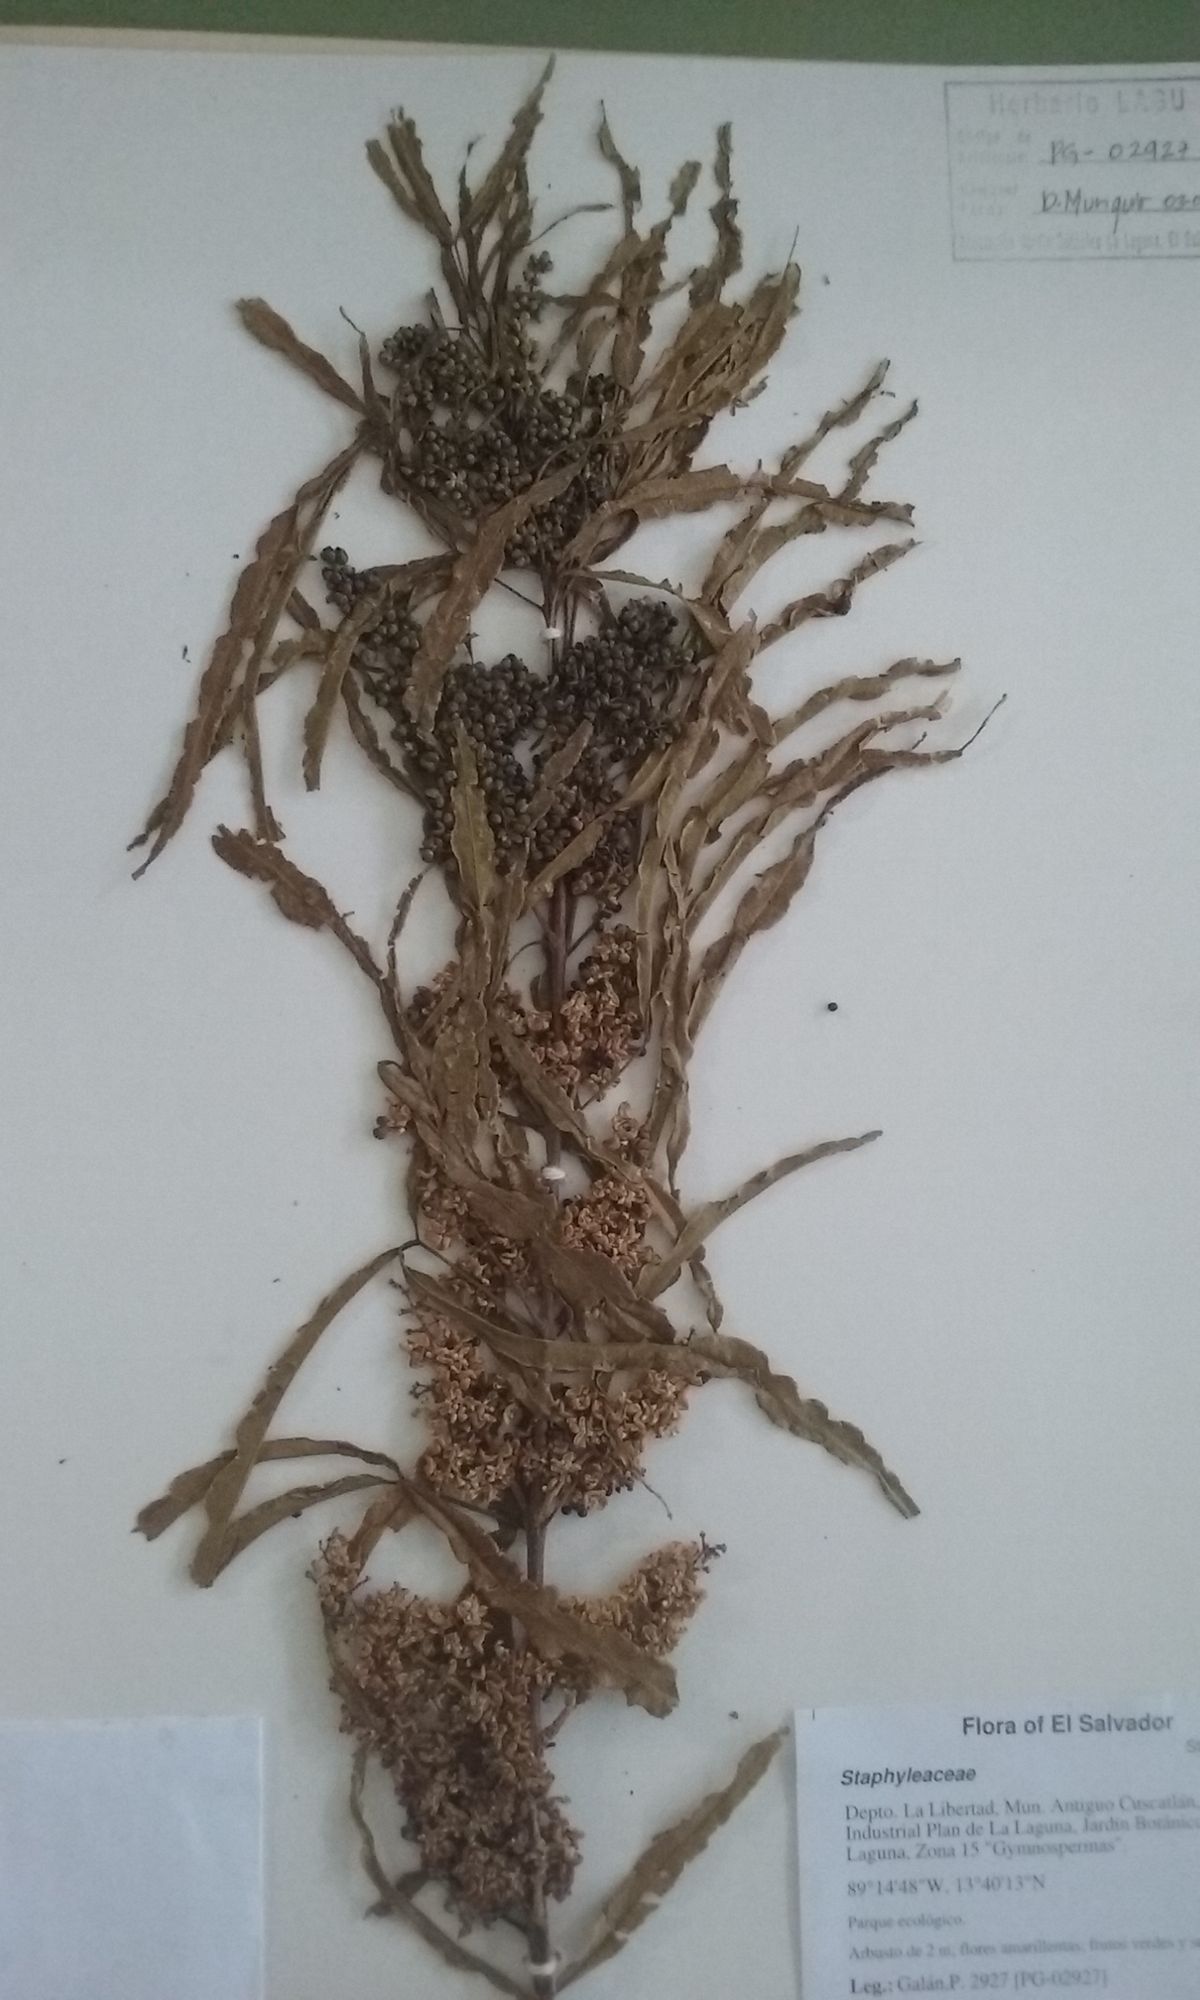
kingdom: Plantae
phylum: Tracheophyta
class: Magnoliopsida
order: Sapindales
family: Rutaceae
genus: Melicope
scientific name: Melicope
